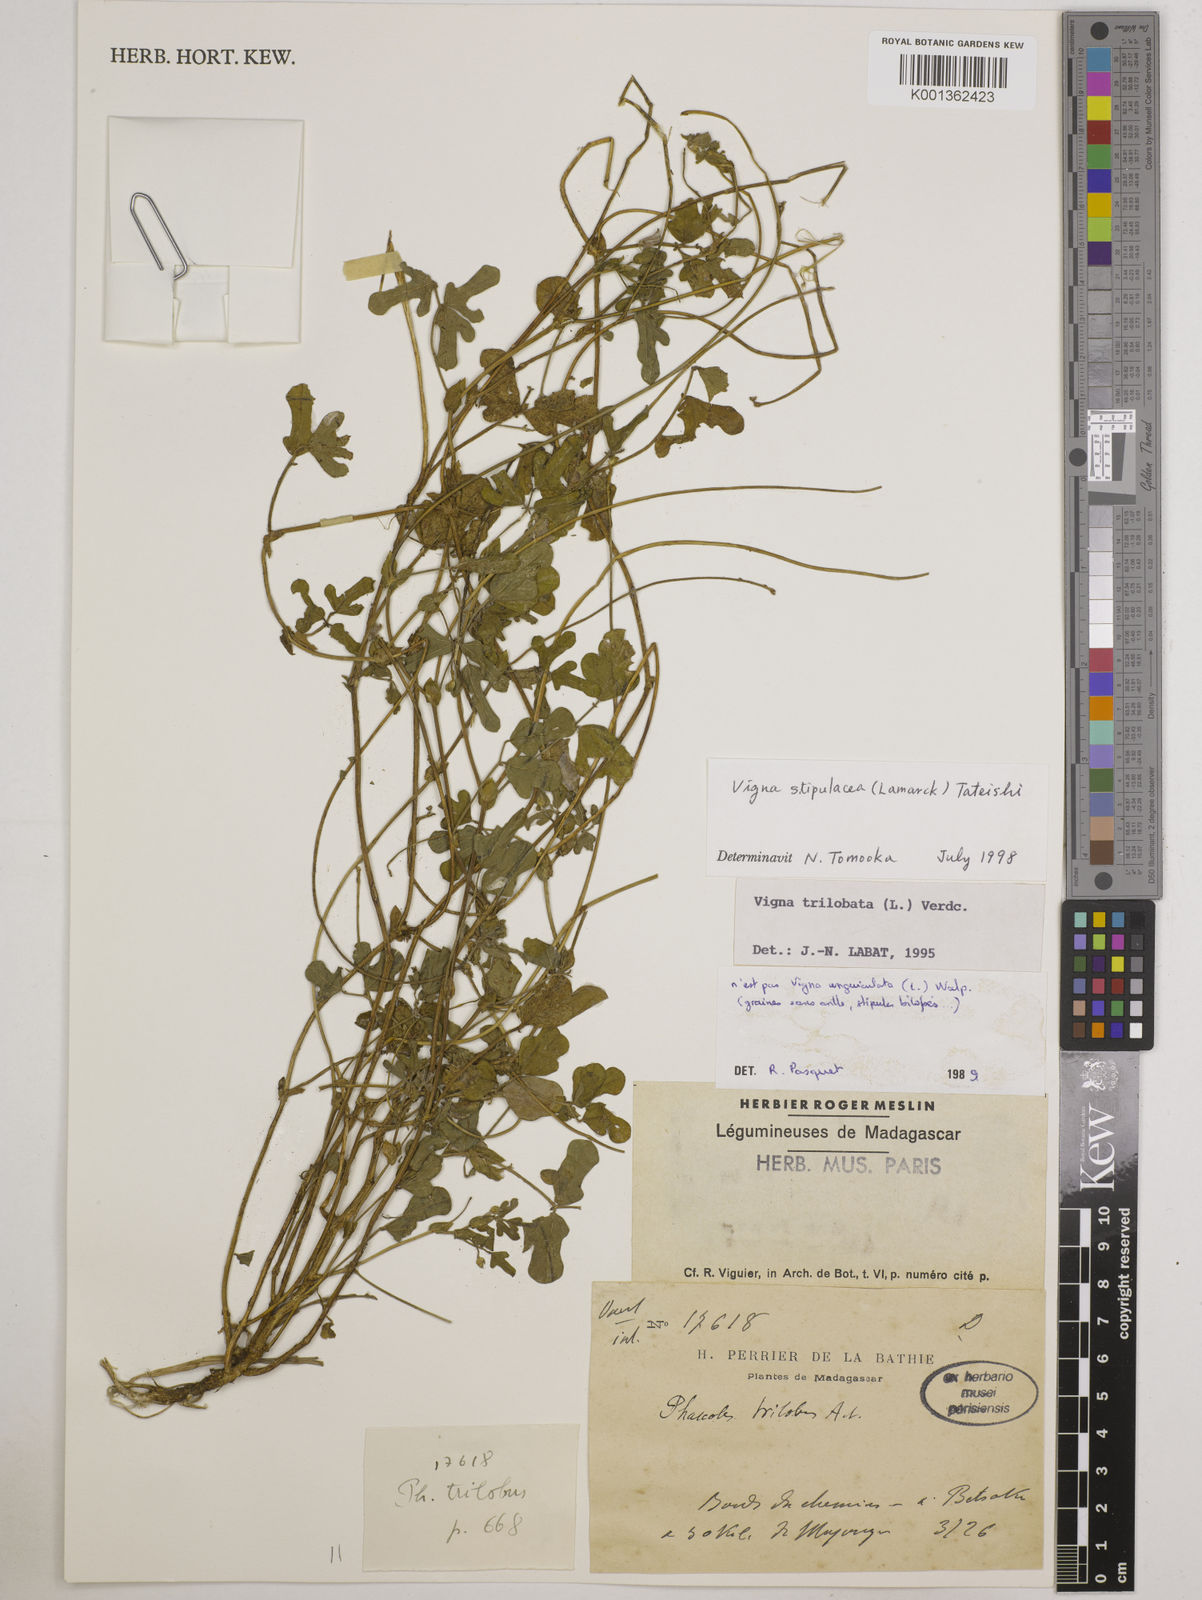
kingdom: Plantae
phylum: Tracheophyta
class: Magnoliopsida
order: Fabales
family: Fabaceae
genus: Pueraria
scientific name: Pueraria montana
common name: Kudzu
